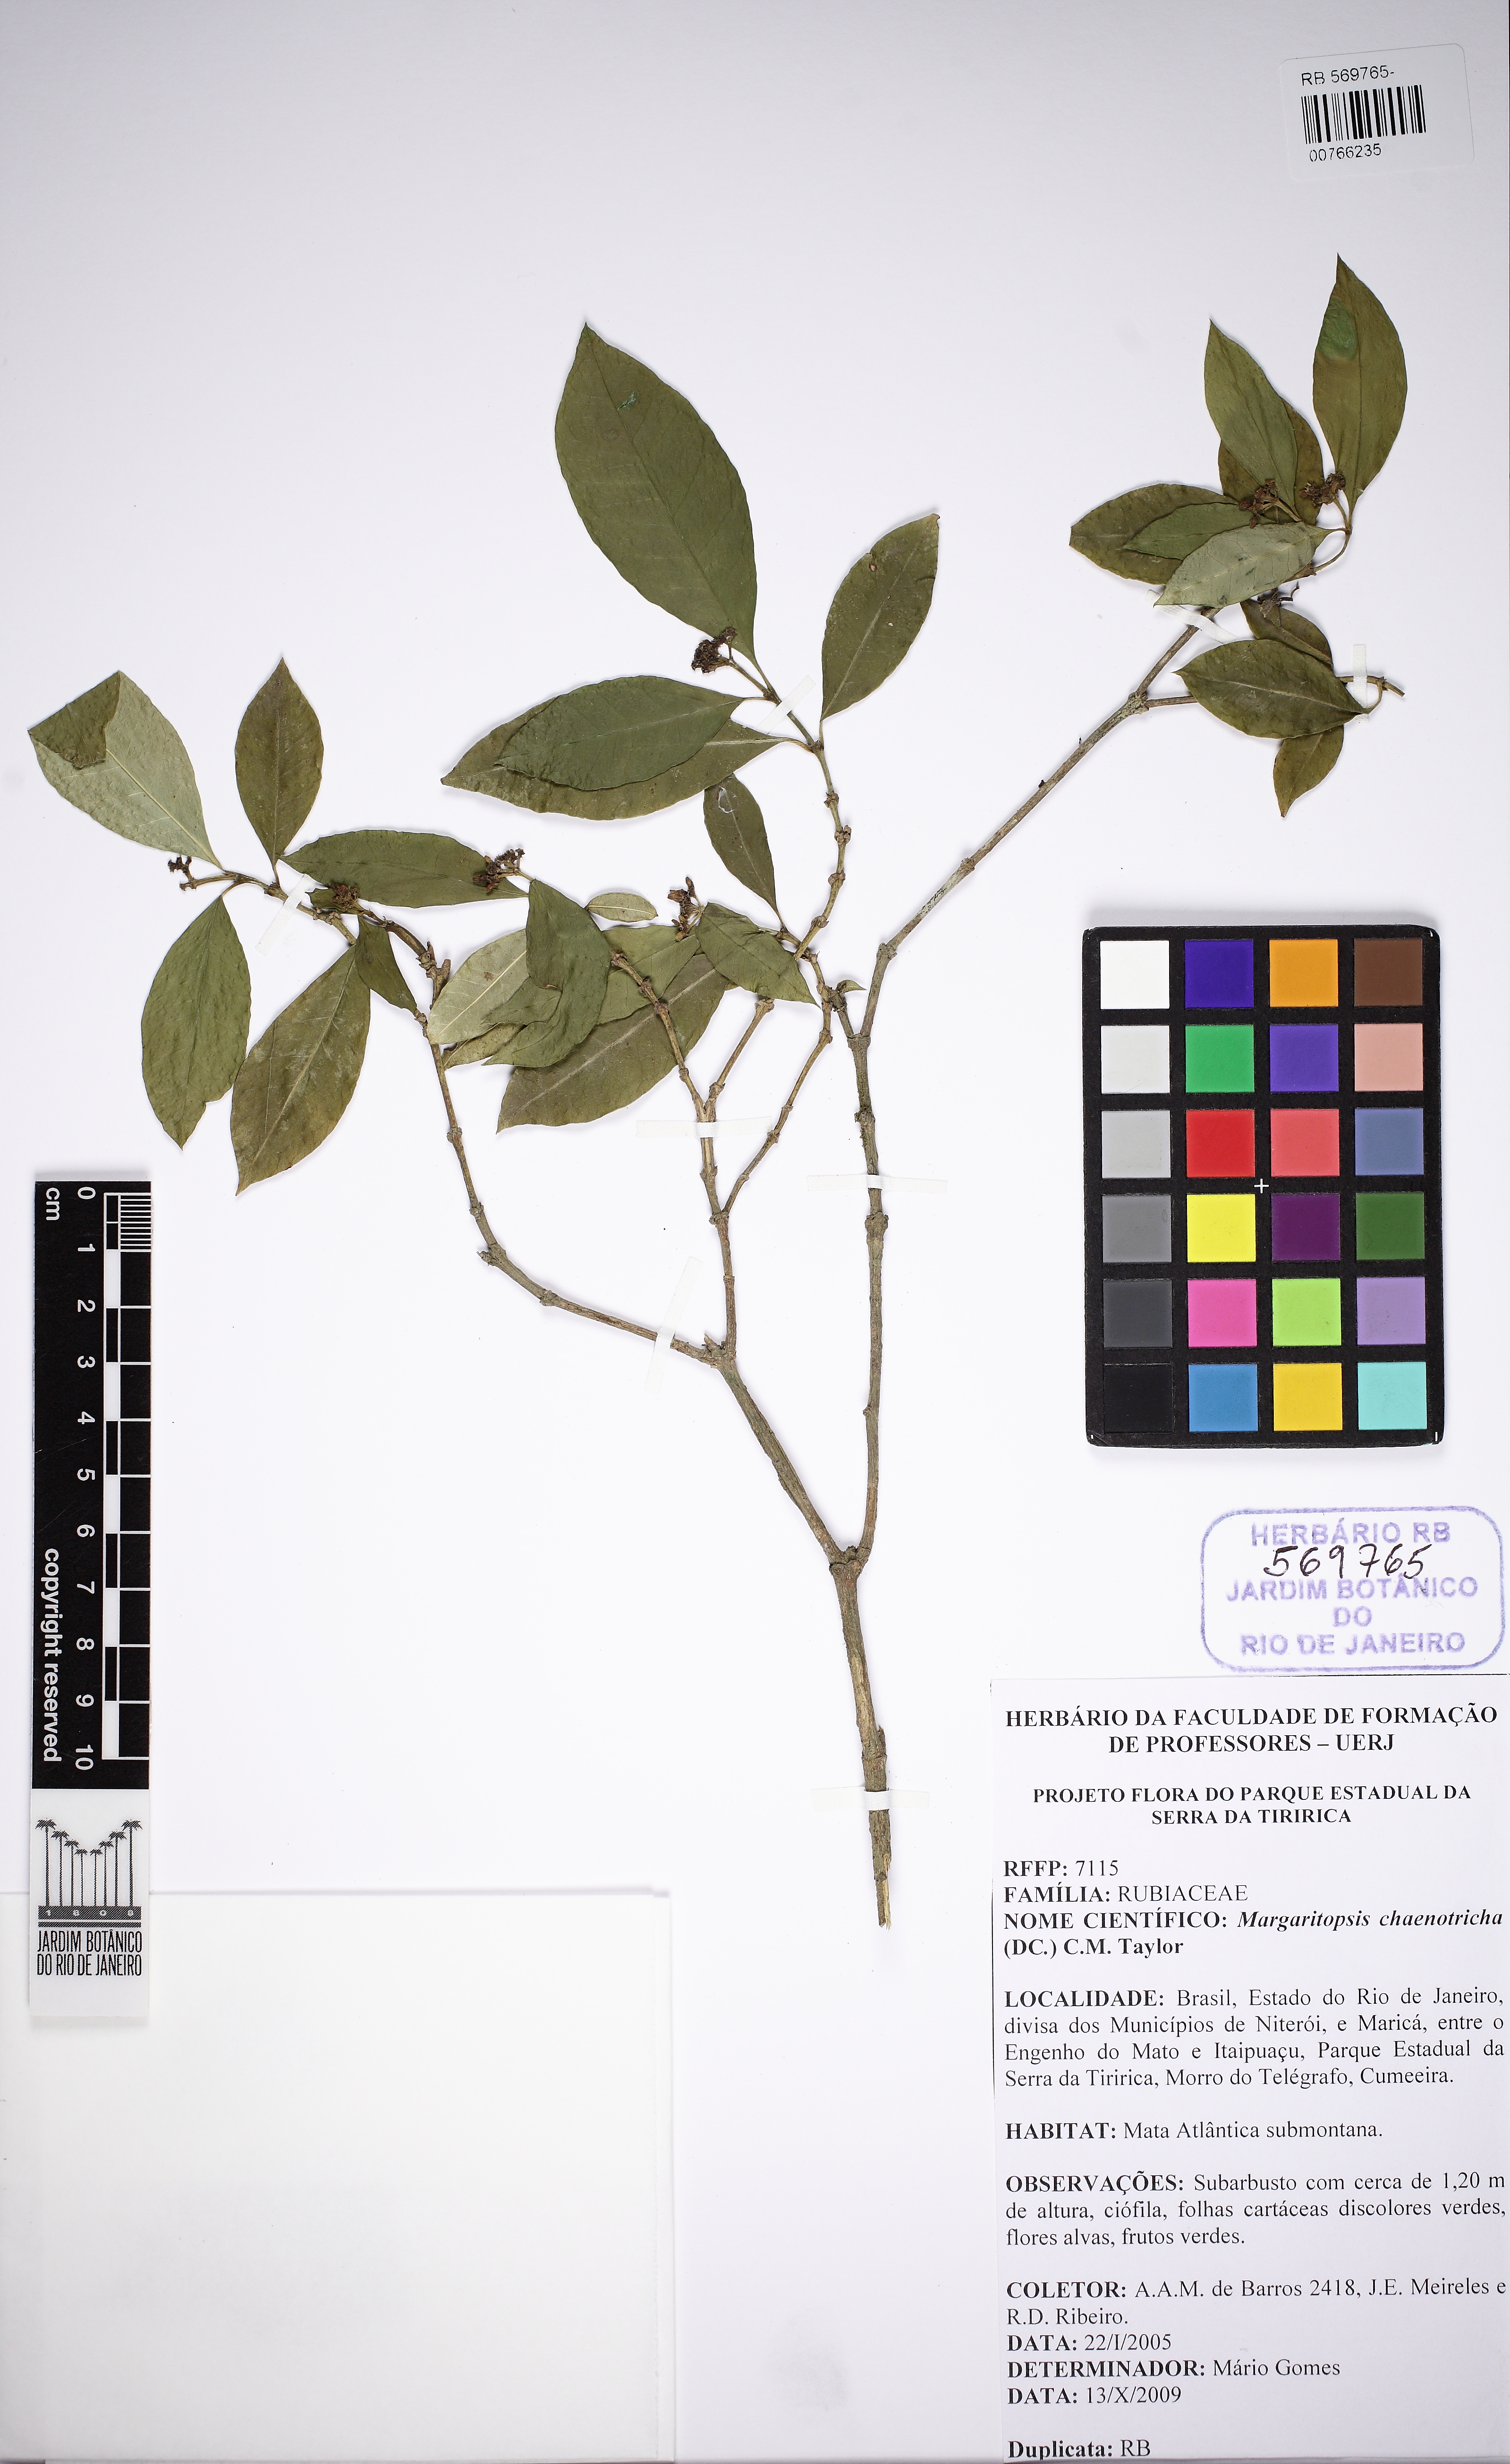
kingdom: Plantae
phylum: Tracheophyta
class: Magnoliopsida
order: Gentianales
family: Rubiaceae
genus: Eumachia
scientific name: Eumachia chaenotricha
